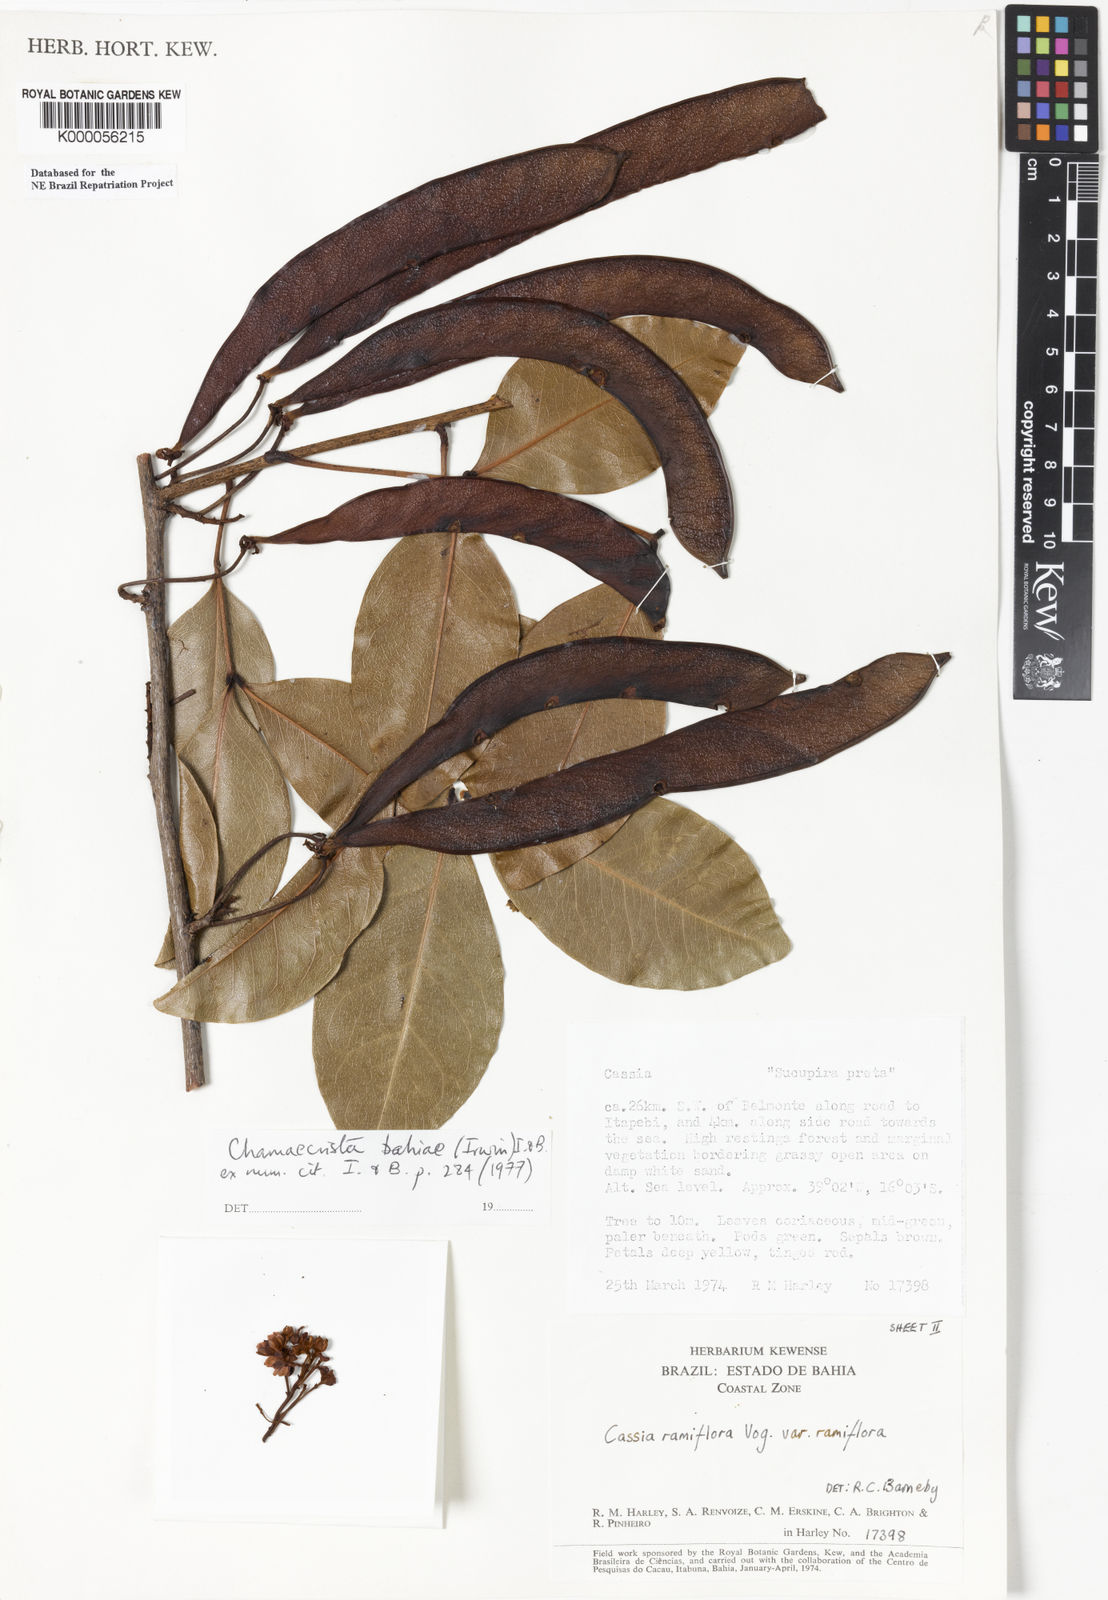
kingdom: Plantae
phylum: Tracheophyta
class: Magnoliopsida
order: Fabales
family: Fabaceae
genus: Chamaecrista
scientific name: Chamaecrista bahiae
